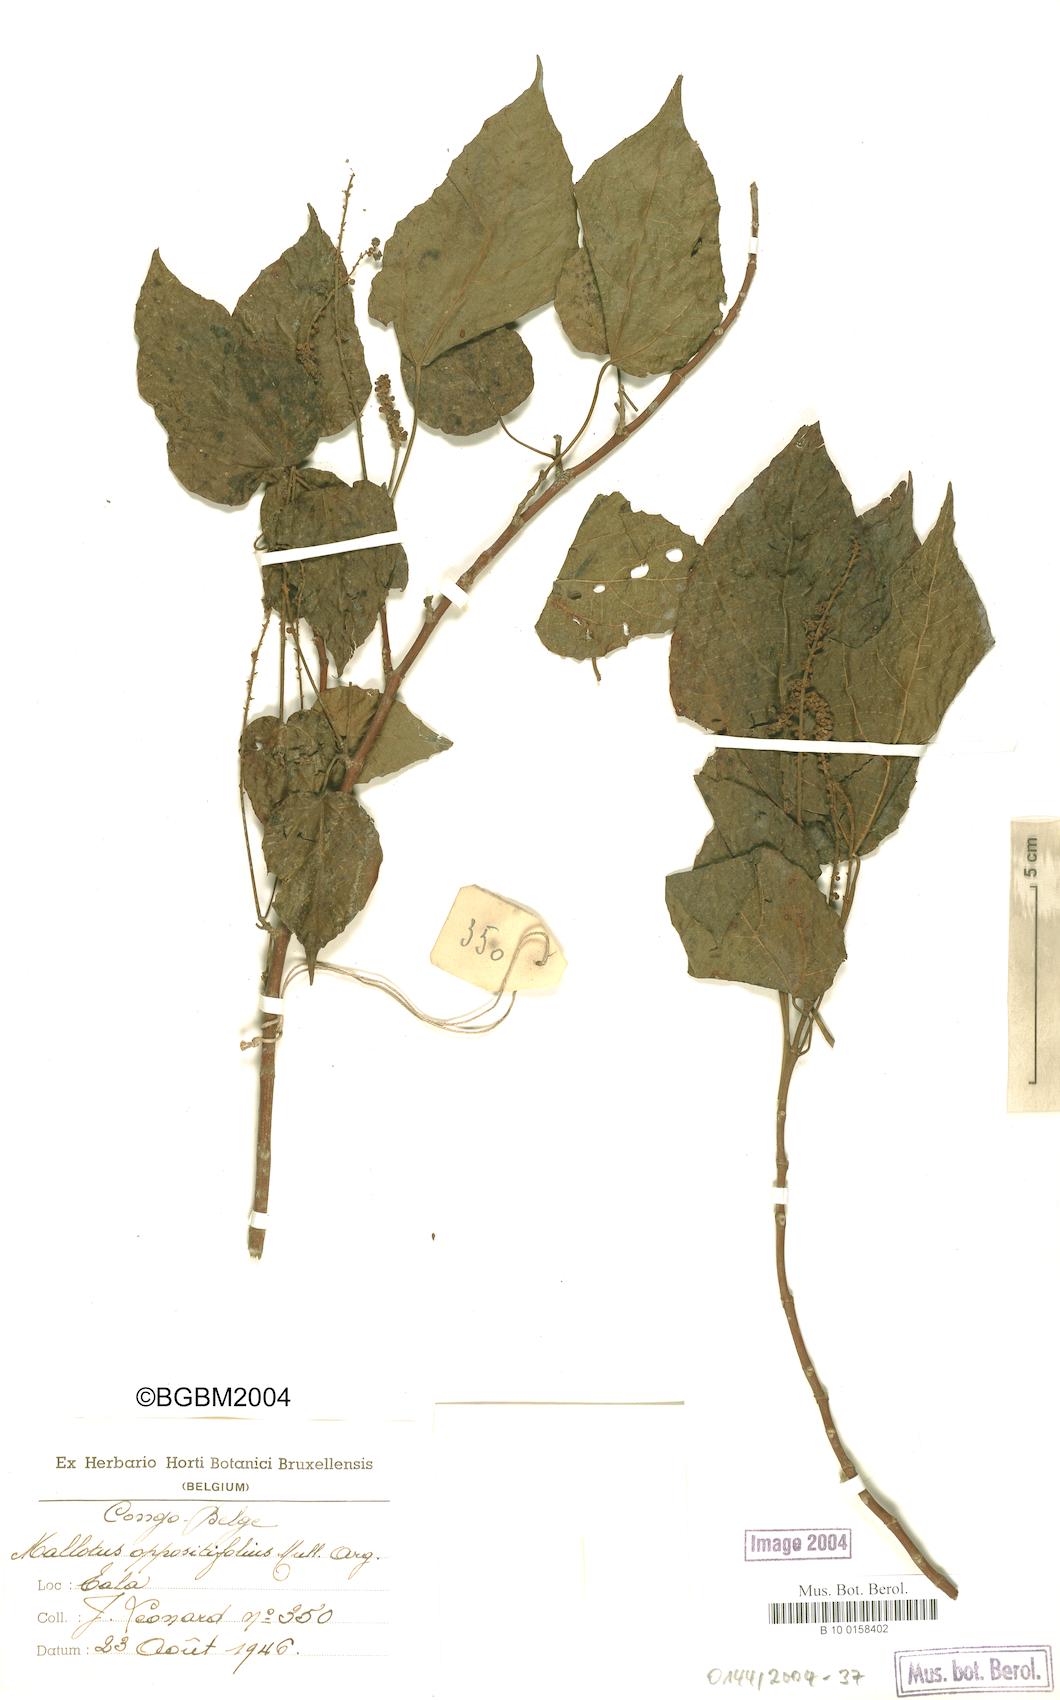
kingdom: Plantae
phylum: Tracheophyta
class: Magnoliopsida
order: Malpighiales
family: Euphorbiaceae
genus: Mallotus
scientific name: Mallotus oppositifolius
